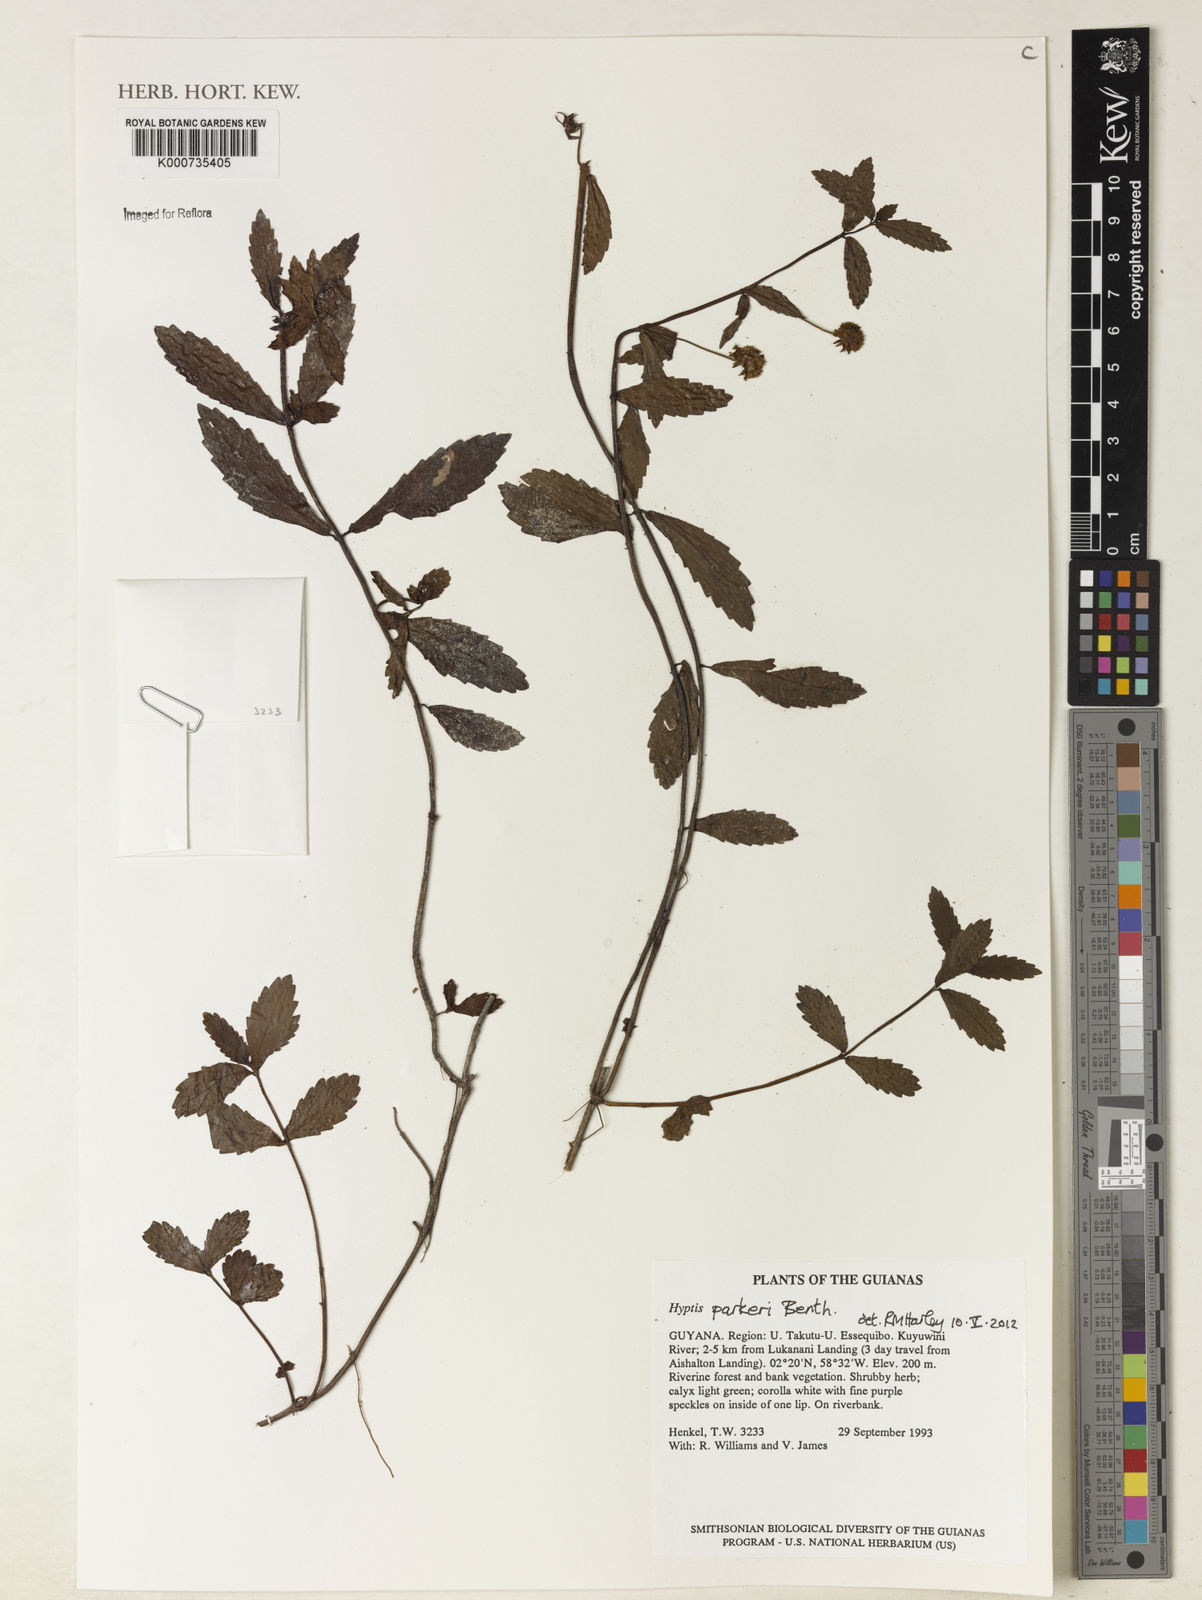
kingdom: Plantae
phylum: Tracheophyta
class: Magnoliopsida
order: Lamiales
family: Lamiaceae
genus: Hyptis
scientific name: Hyptis parkeri
